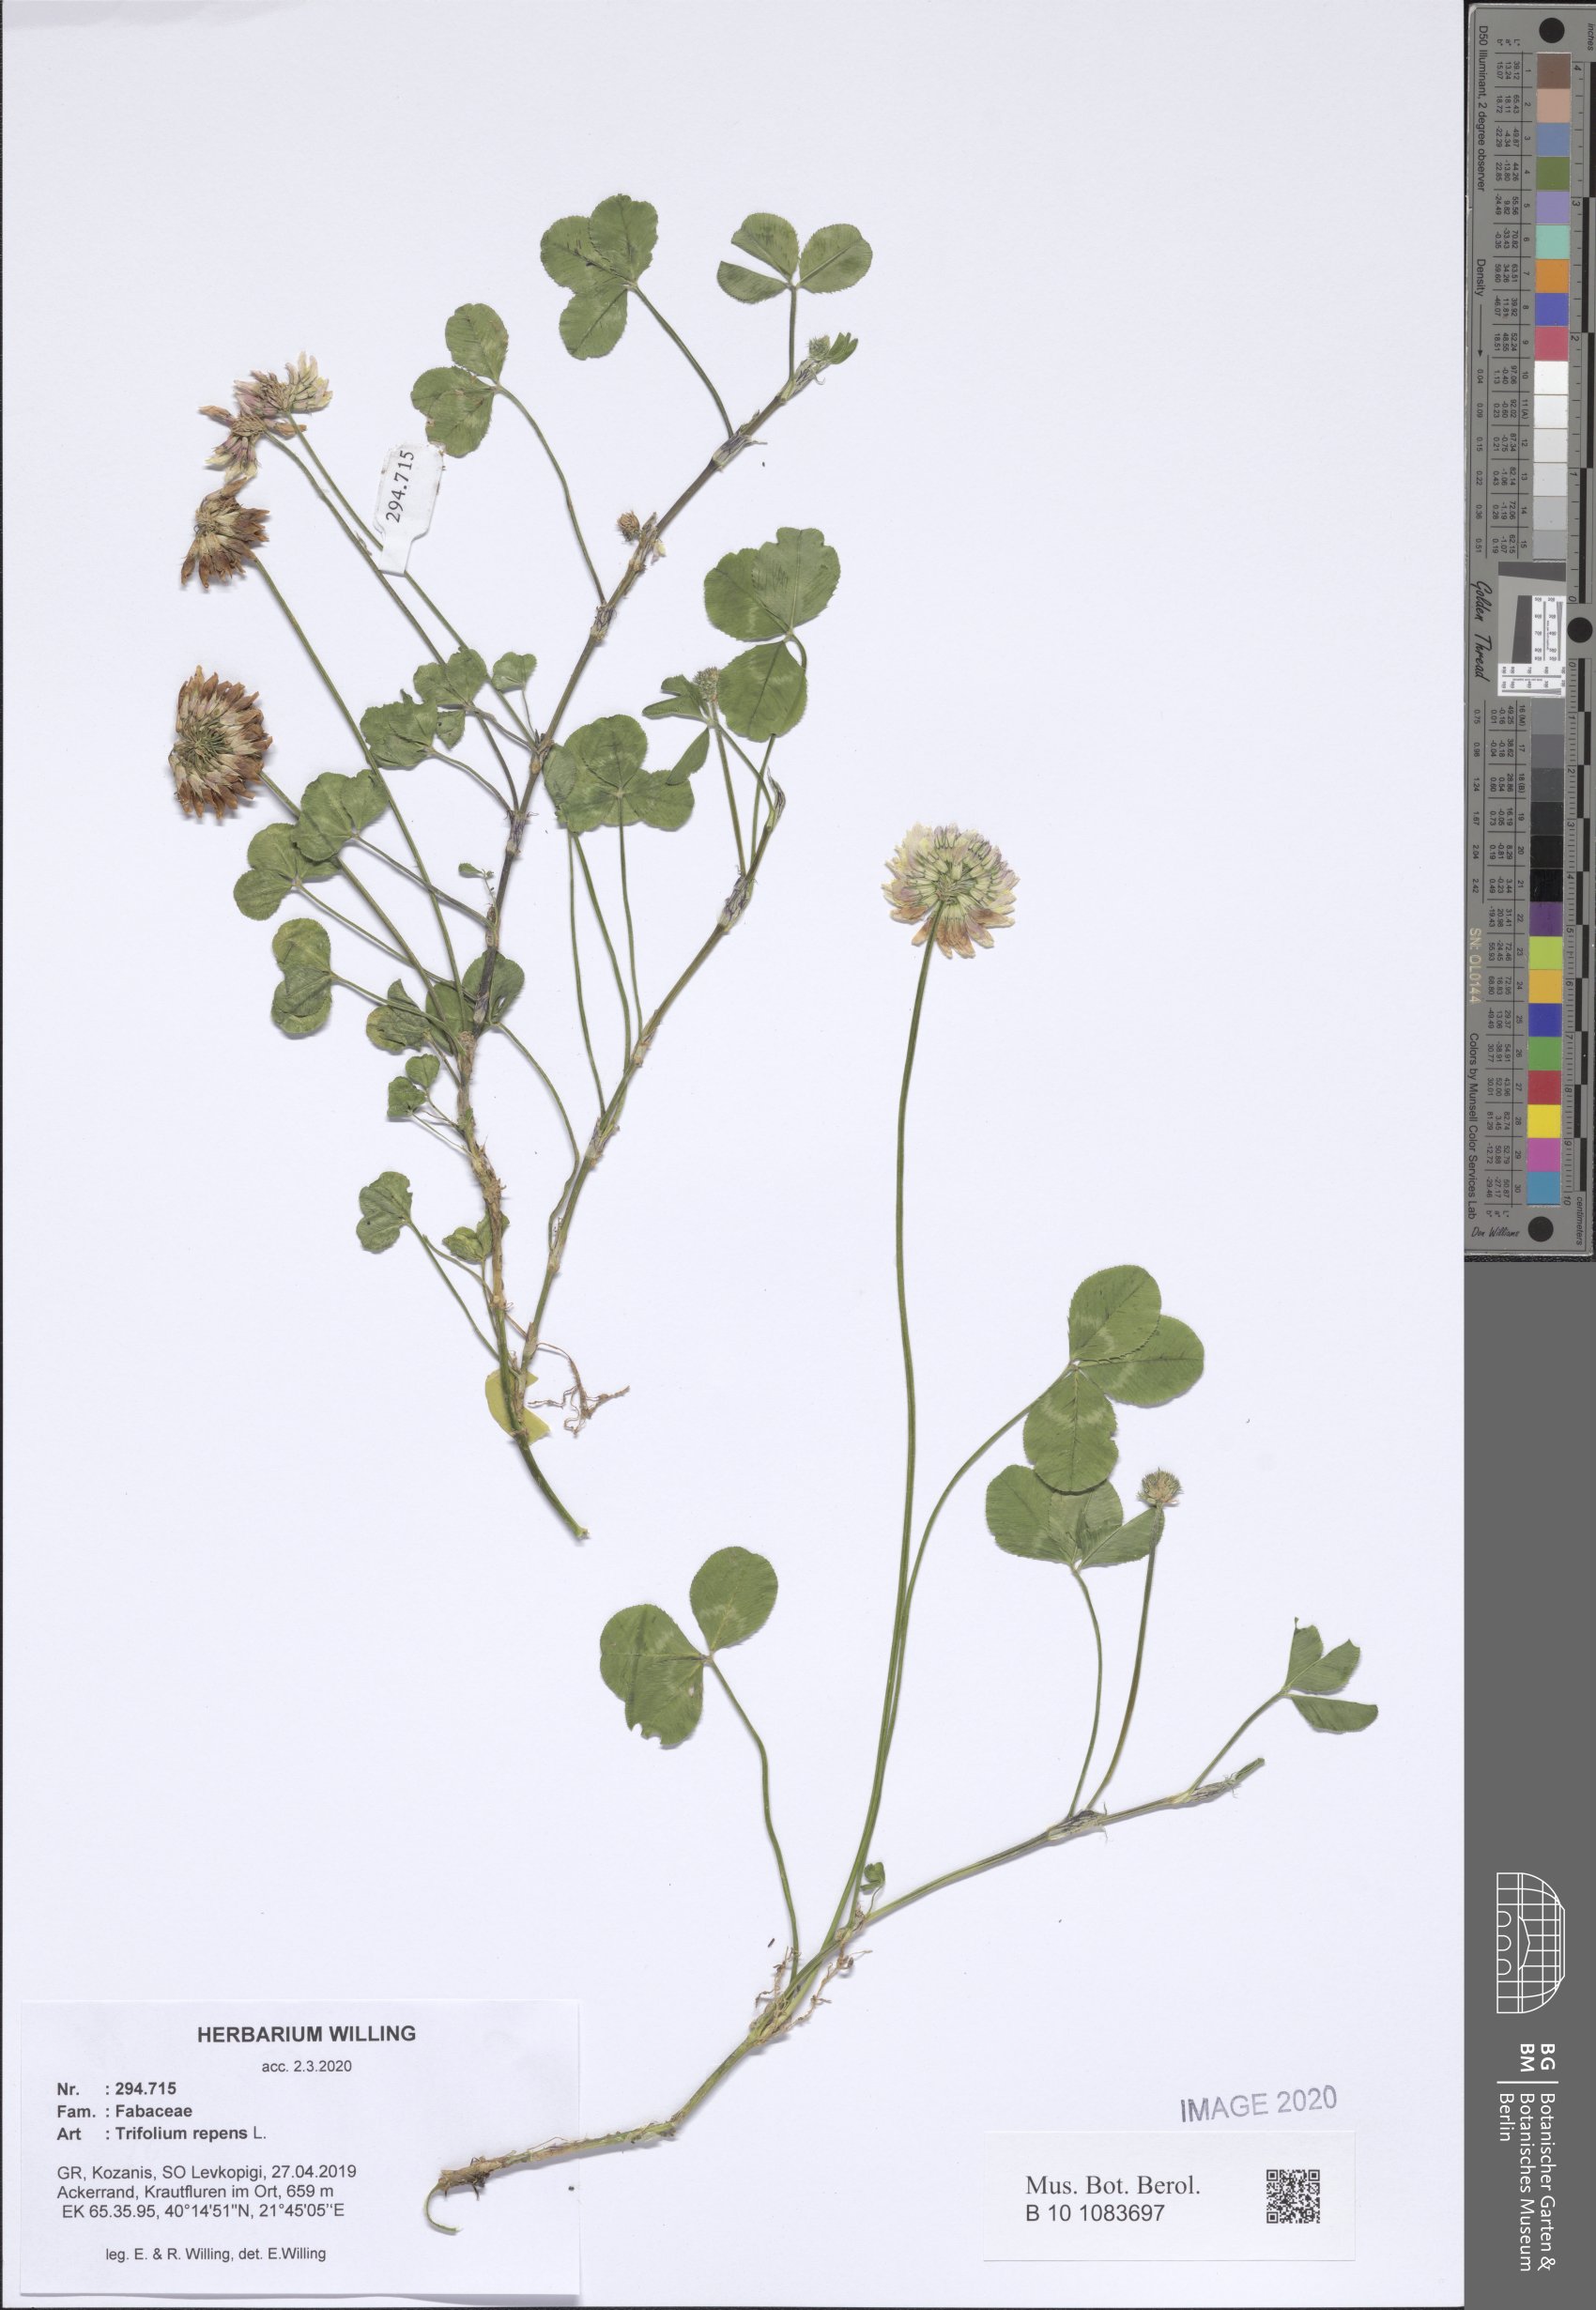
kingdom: Plantae
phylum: Tracheophyta
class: Magnoliopsida
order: Fabales
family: Fabaceae
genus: Trifolium
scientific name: Trifolium repens
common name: White clover
